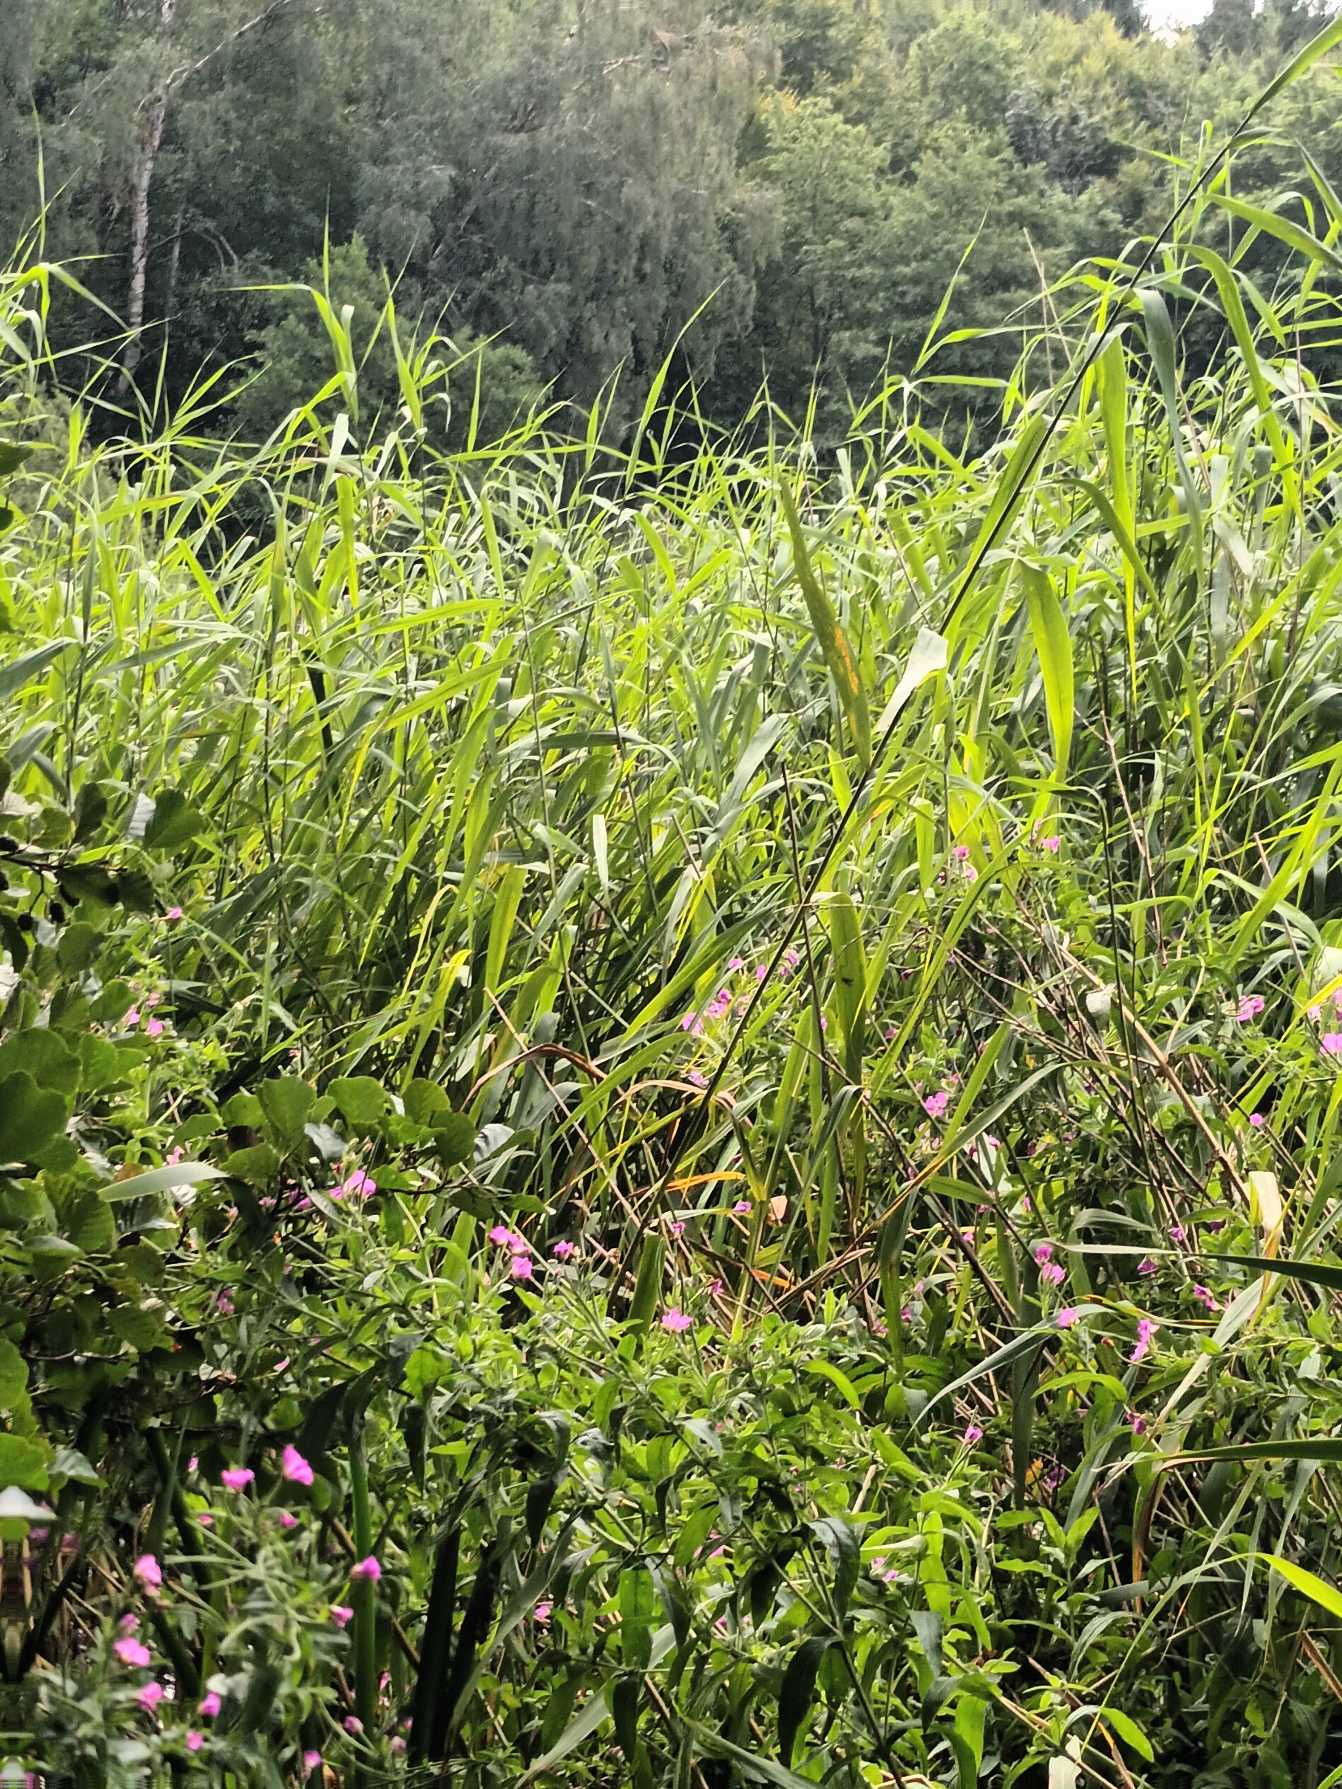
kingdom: Plantae
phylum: Tracheophyta
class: Liliopsida
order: Poales
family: Poaceae
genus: Phragmites
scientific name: Phragmites australis
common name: Tagrør
